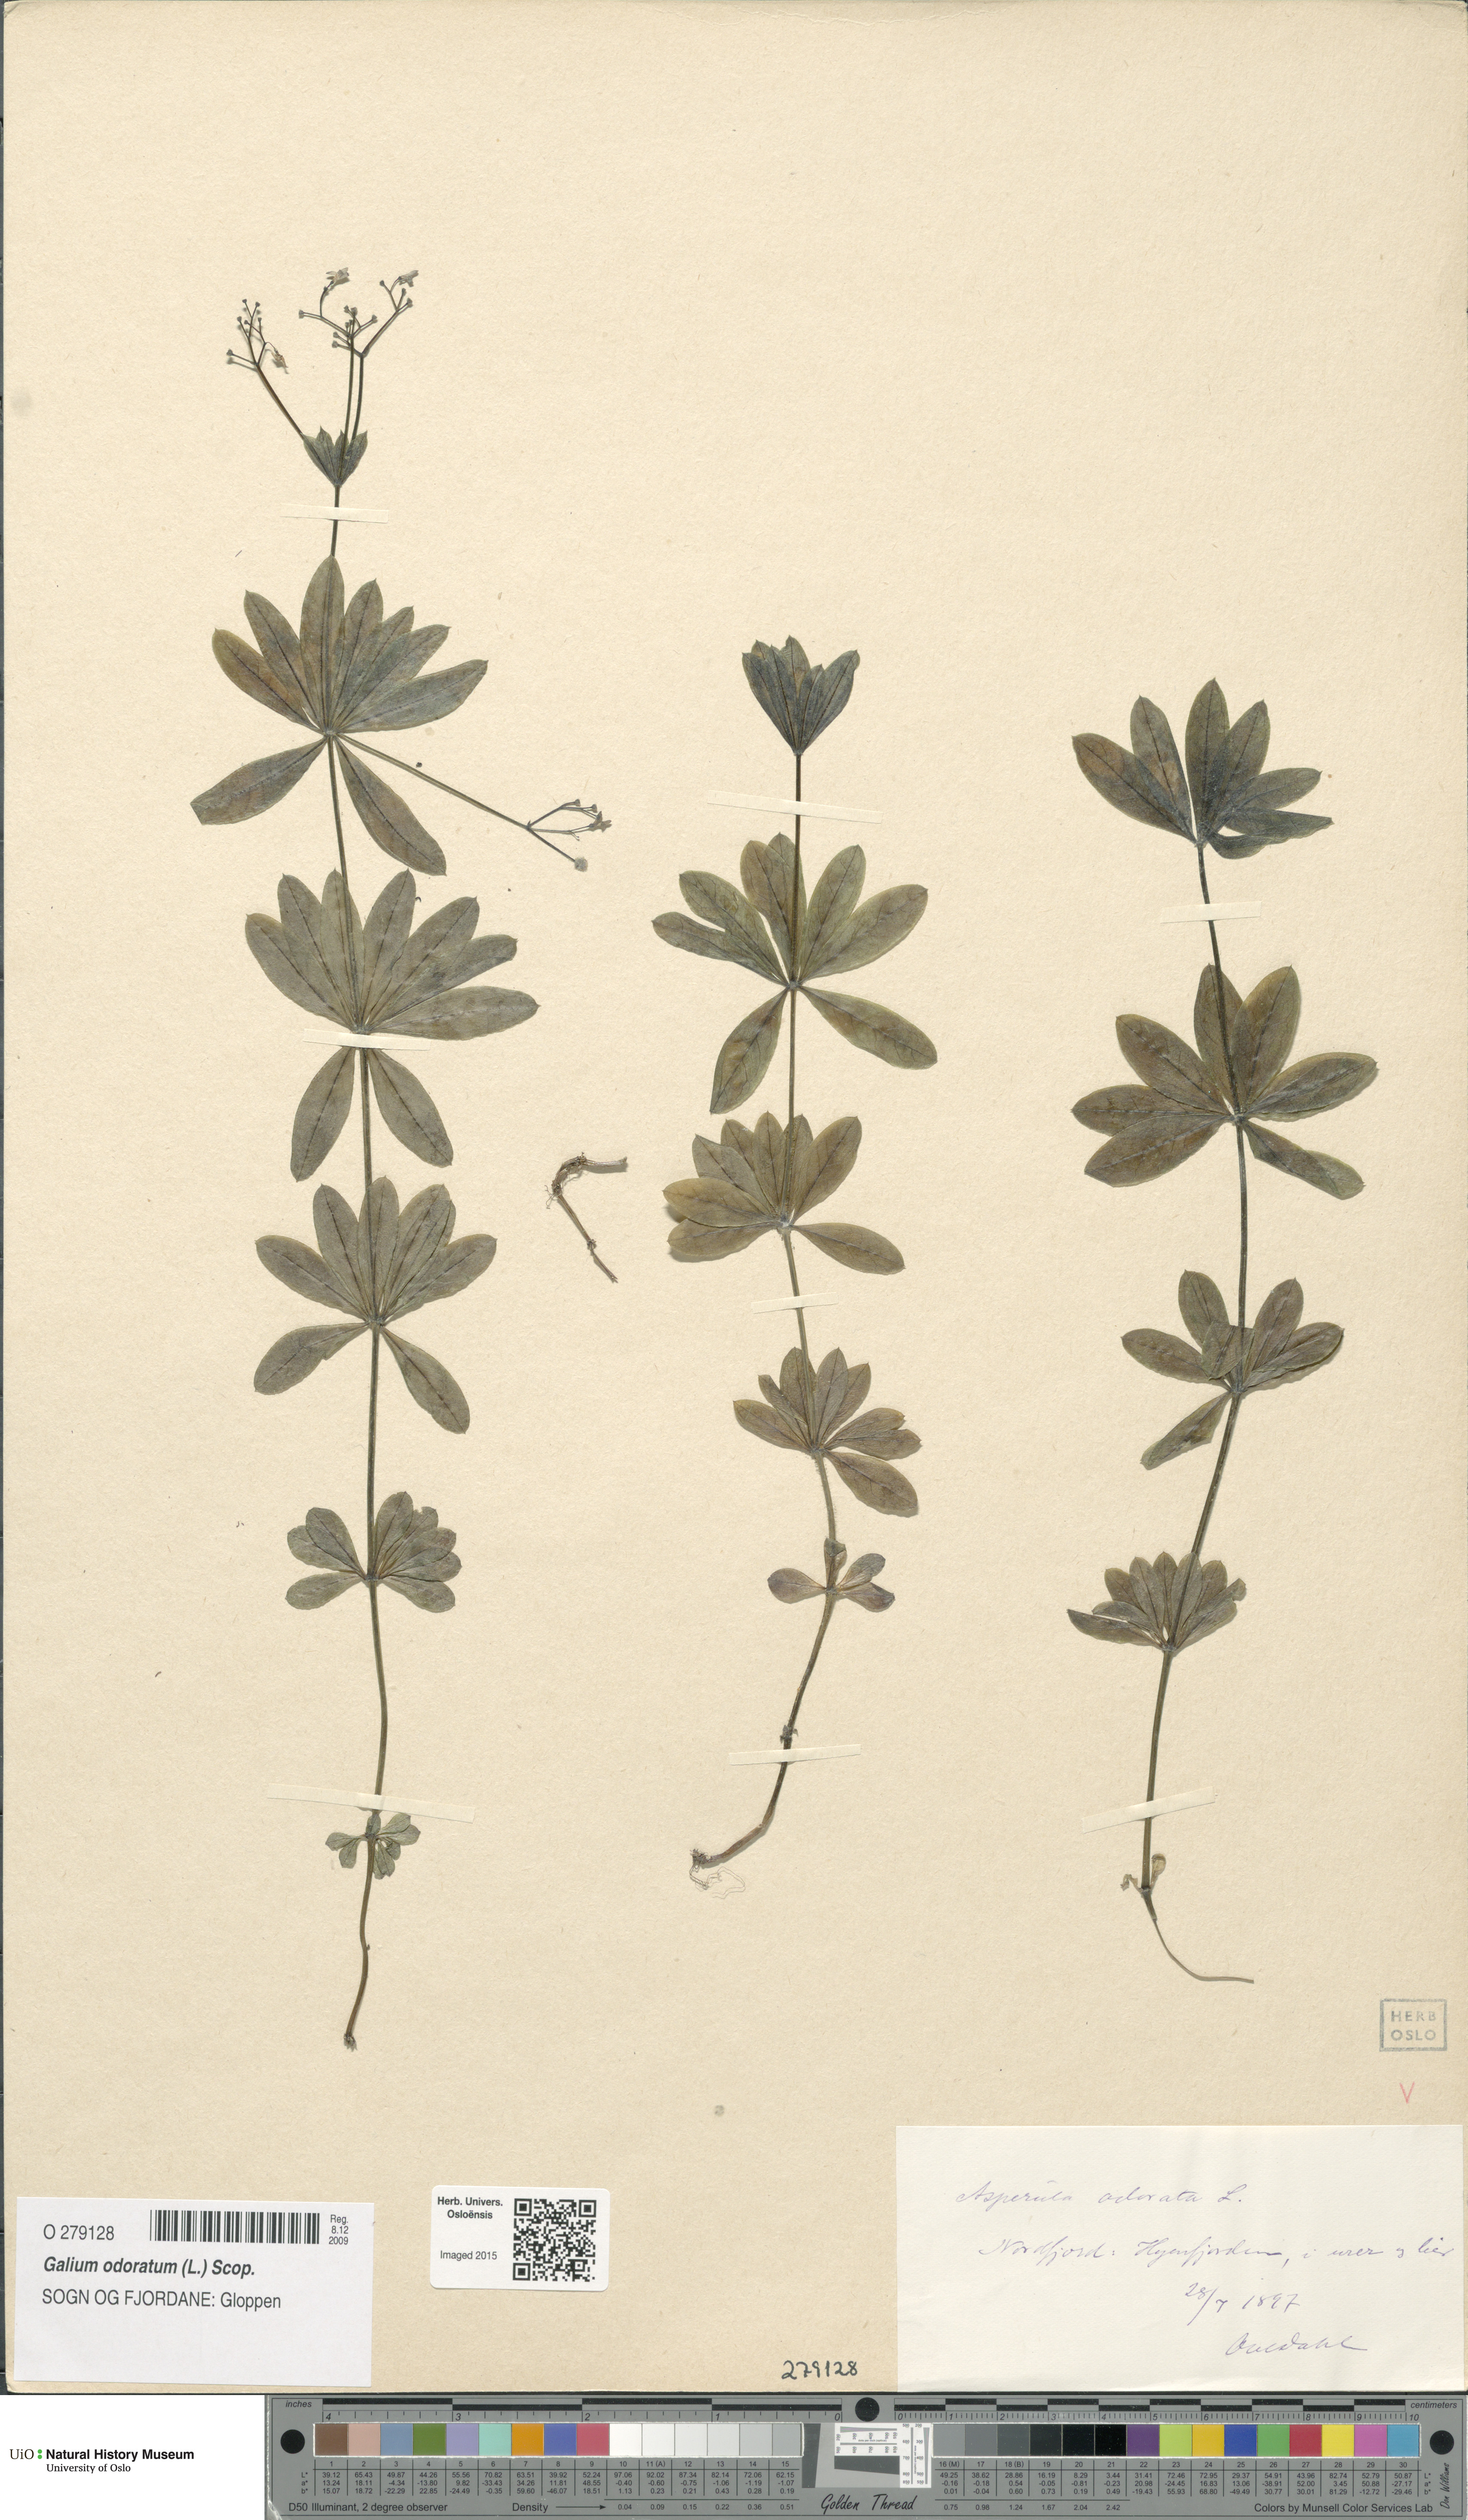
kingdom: Plantae
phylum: Tracheophyta
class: Magnoliopsida
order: Gentianales
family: Rubiaceae
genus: Galium
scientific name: Galium odoratum
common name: Sweet woodruff
